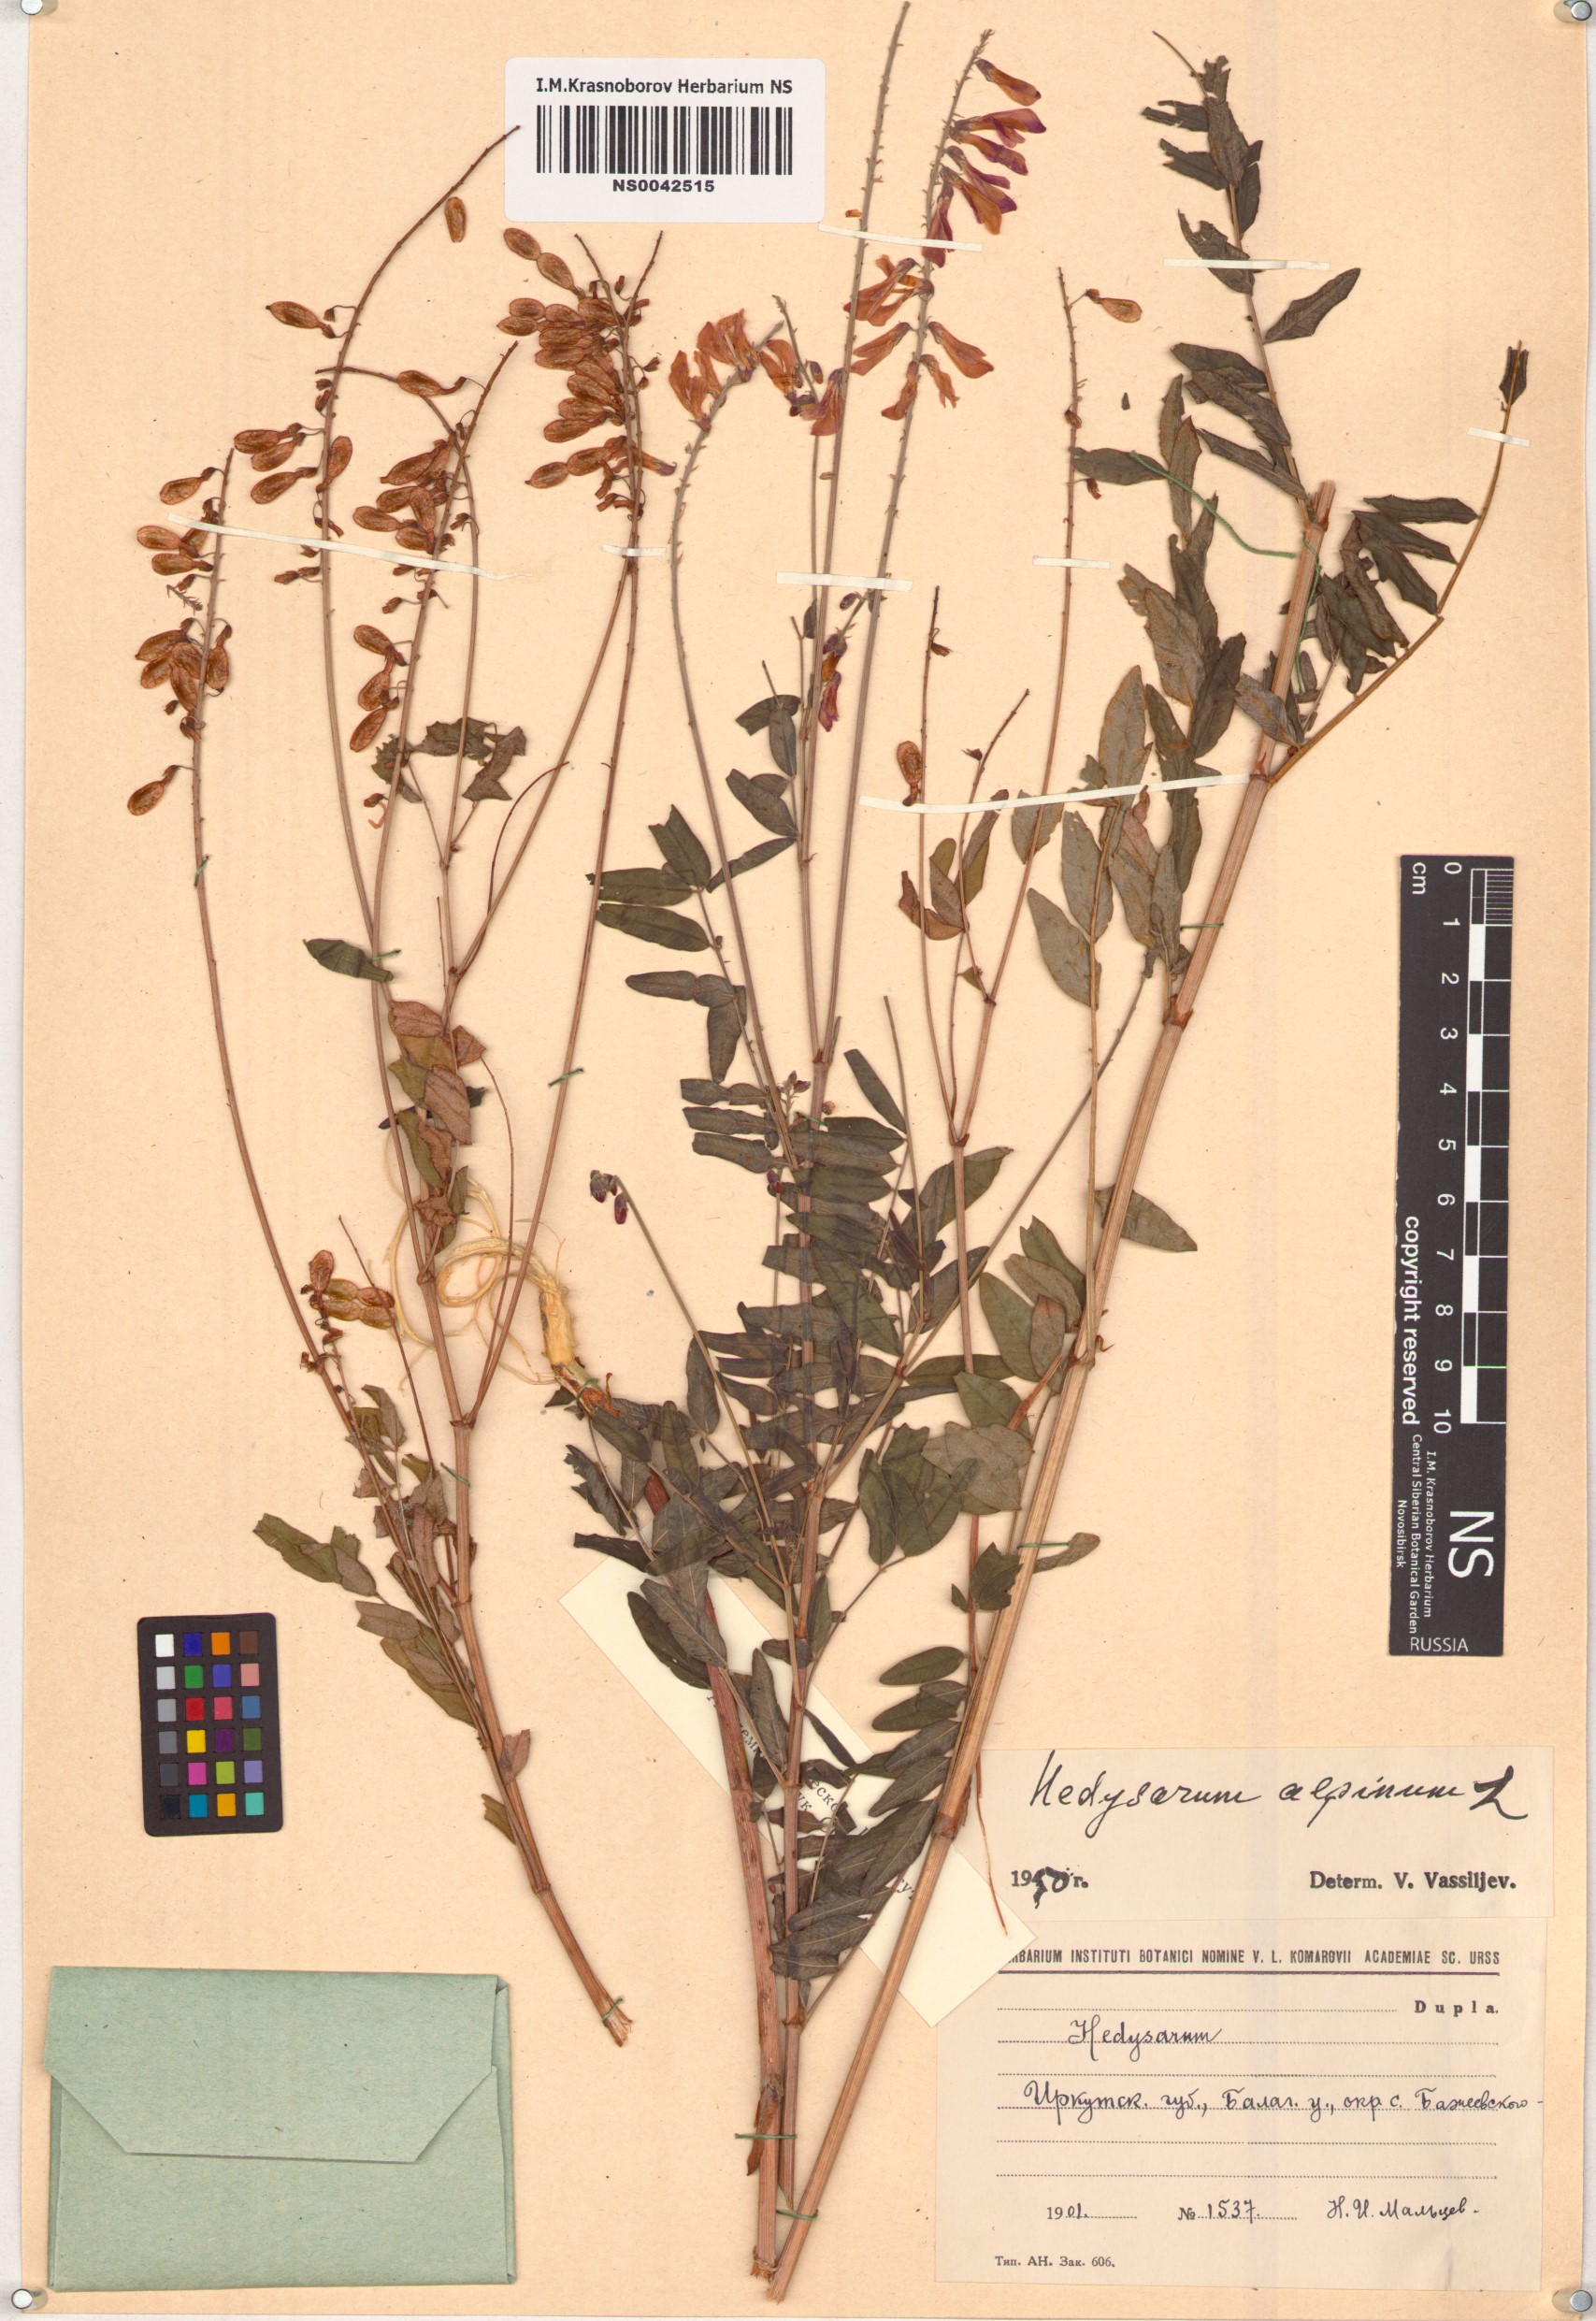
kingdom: Plantae
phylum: Tracheophyta
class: Magnoliopsida
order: Fabales
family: Fabaceae
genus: Hedysarum
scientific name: Hedysarum alpinum
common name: Alpine sweet-vetch
